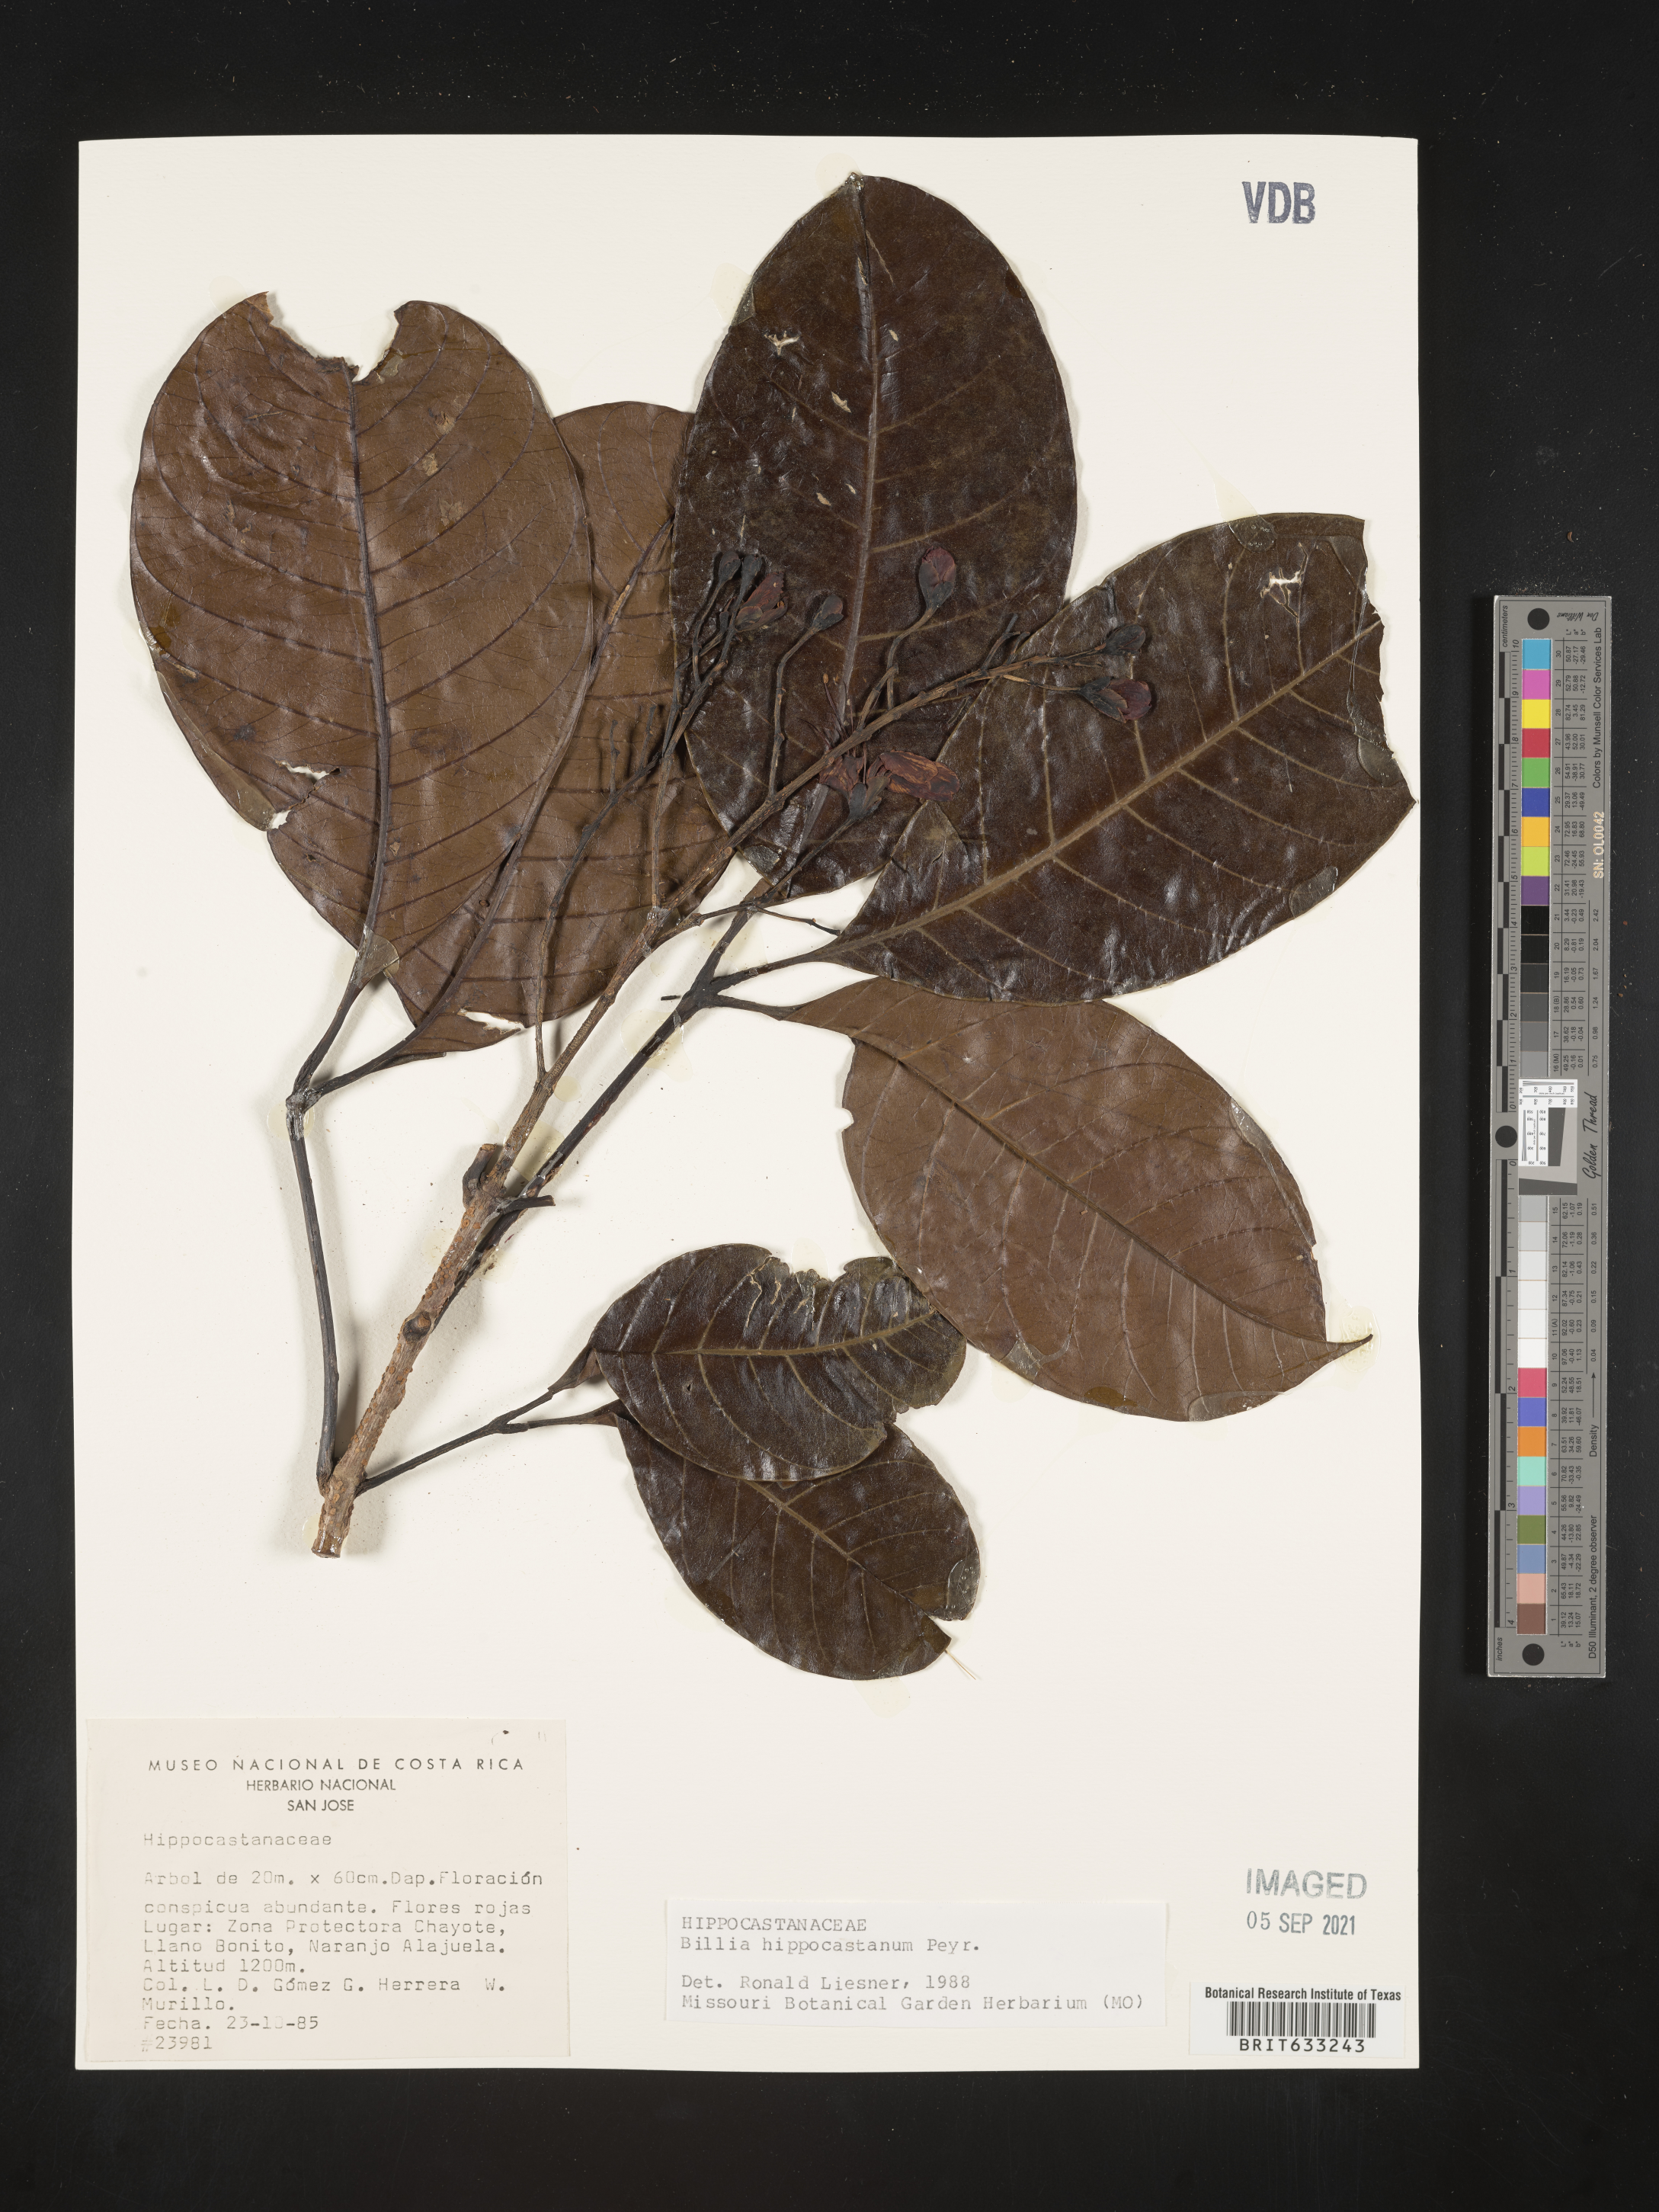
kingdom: Plantae
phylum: Tracheophyta
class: Magnoliopsida
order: Sapindales
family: Sapindaceae
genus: Billia
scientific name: Billia
